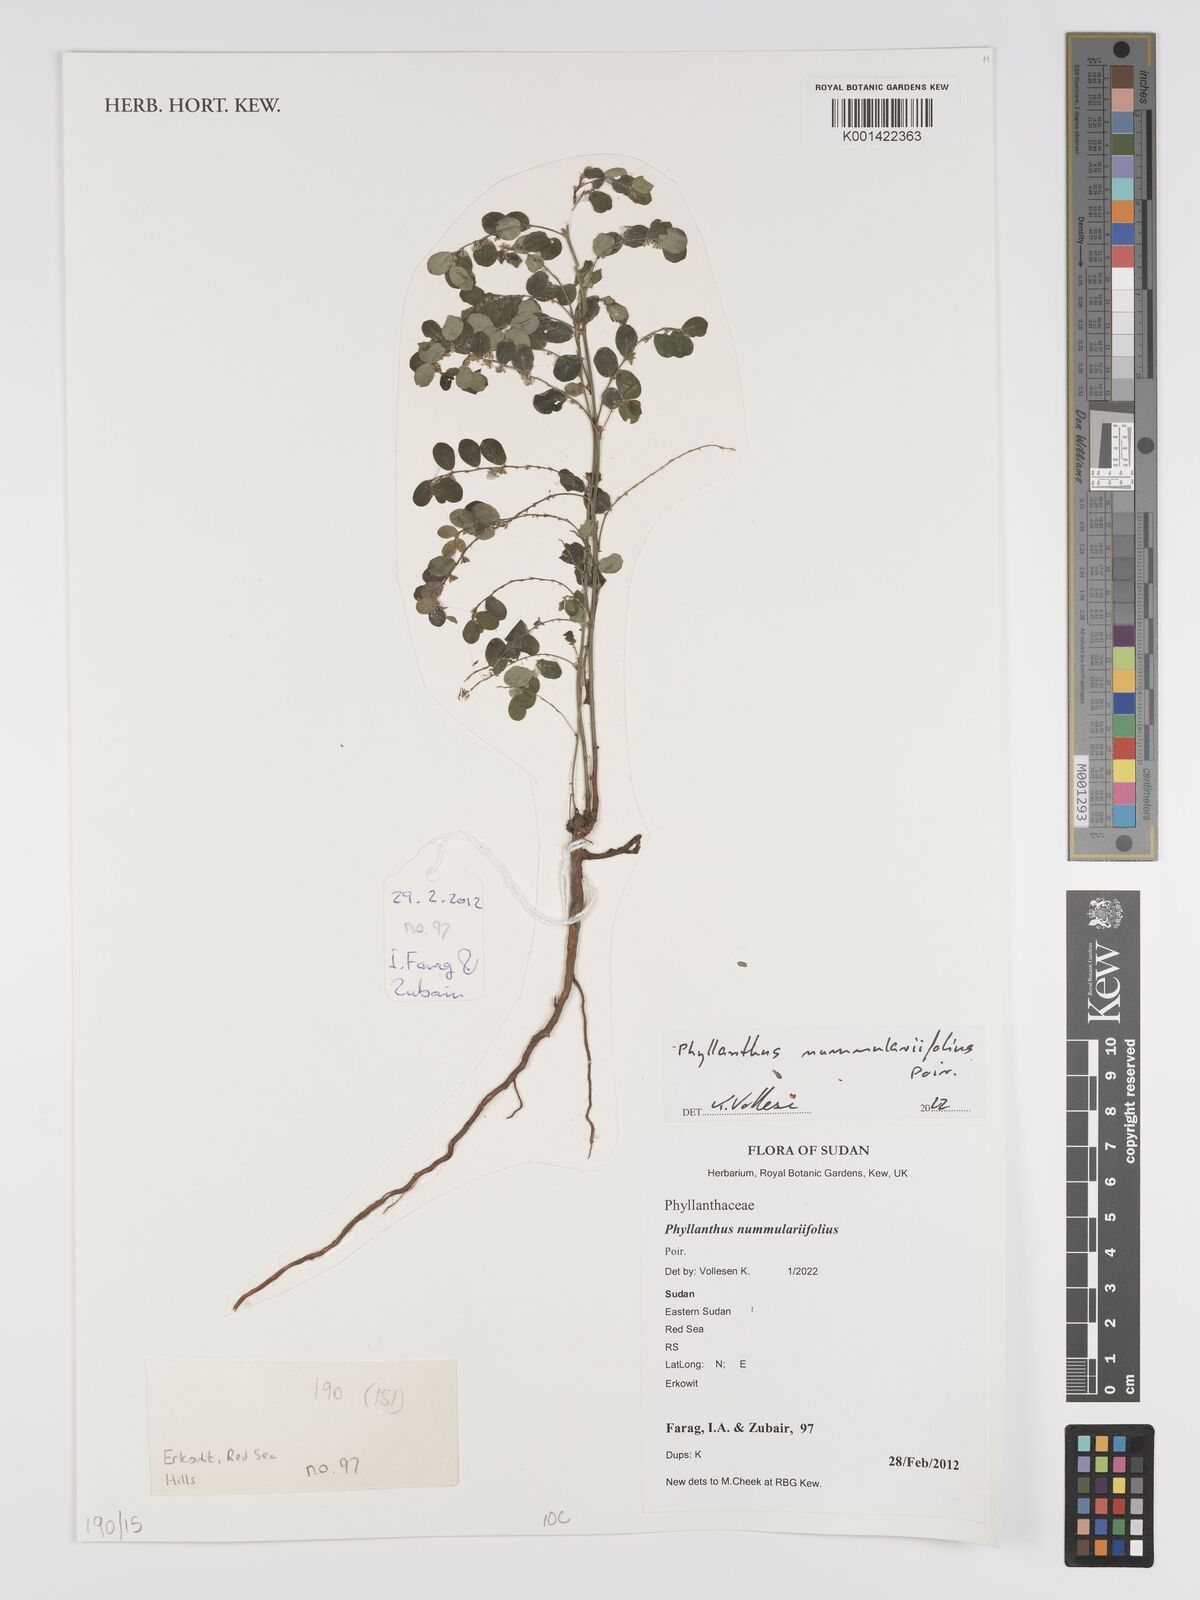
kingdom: Plantae
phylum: Tracheophyta
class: Magnoliopsida
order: Malpighiales
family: Phyllanthaceae
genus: Phyllanthus
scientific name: Phyllanthus nummulariifolius
